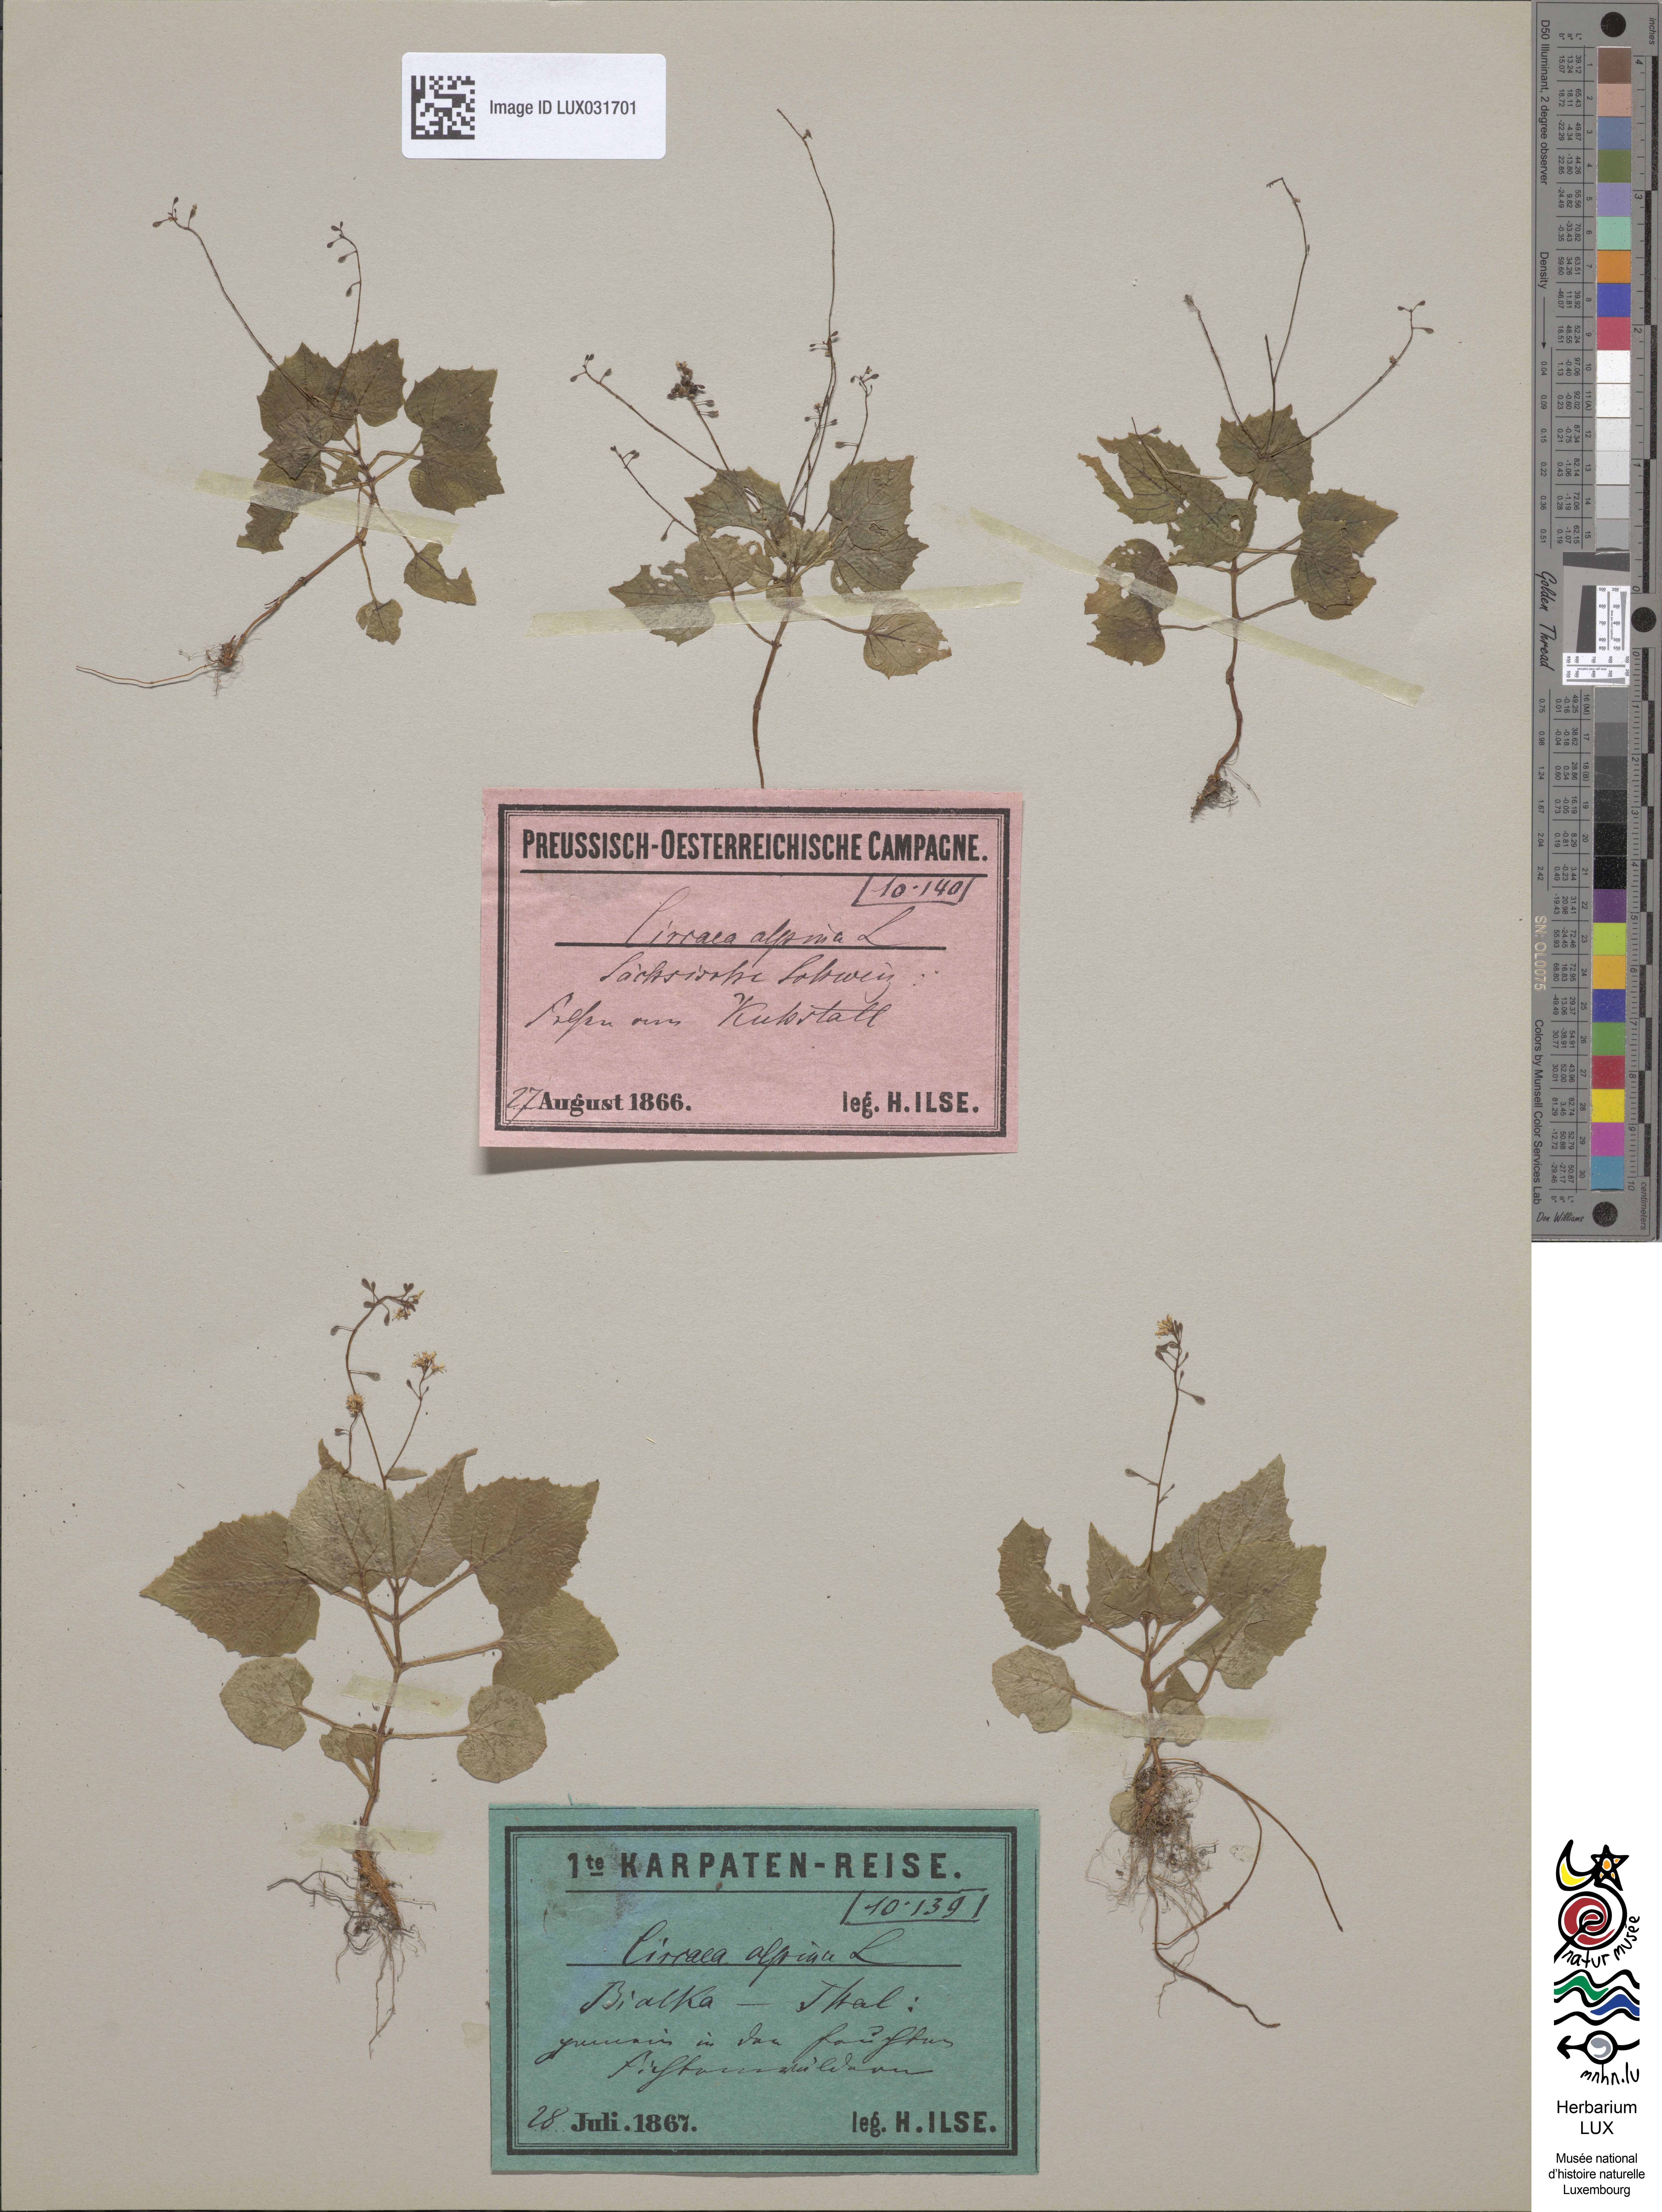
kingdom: Plantae
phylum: Tracheophyta
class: Magnoliopsida
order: Myrtales
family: Onagraceae
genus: Circaea
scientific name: Circaea alpina
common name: Alpine enchanter's-nightshade
